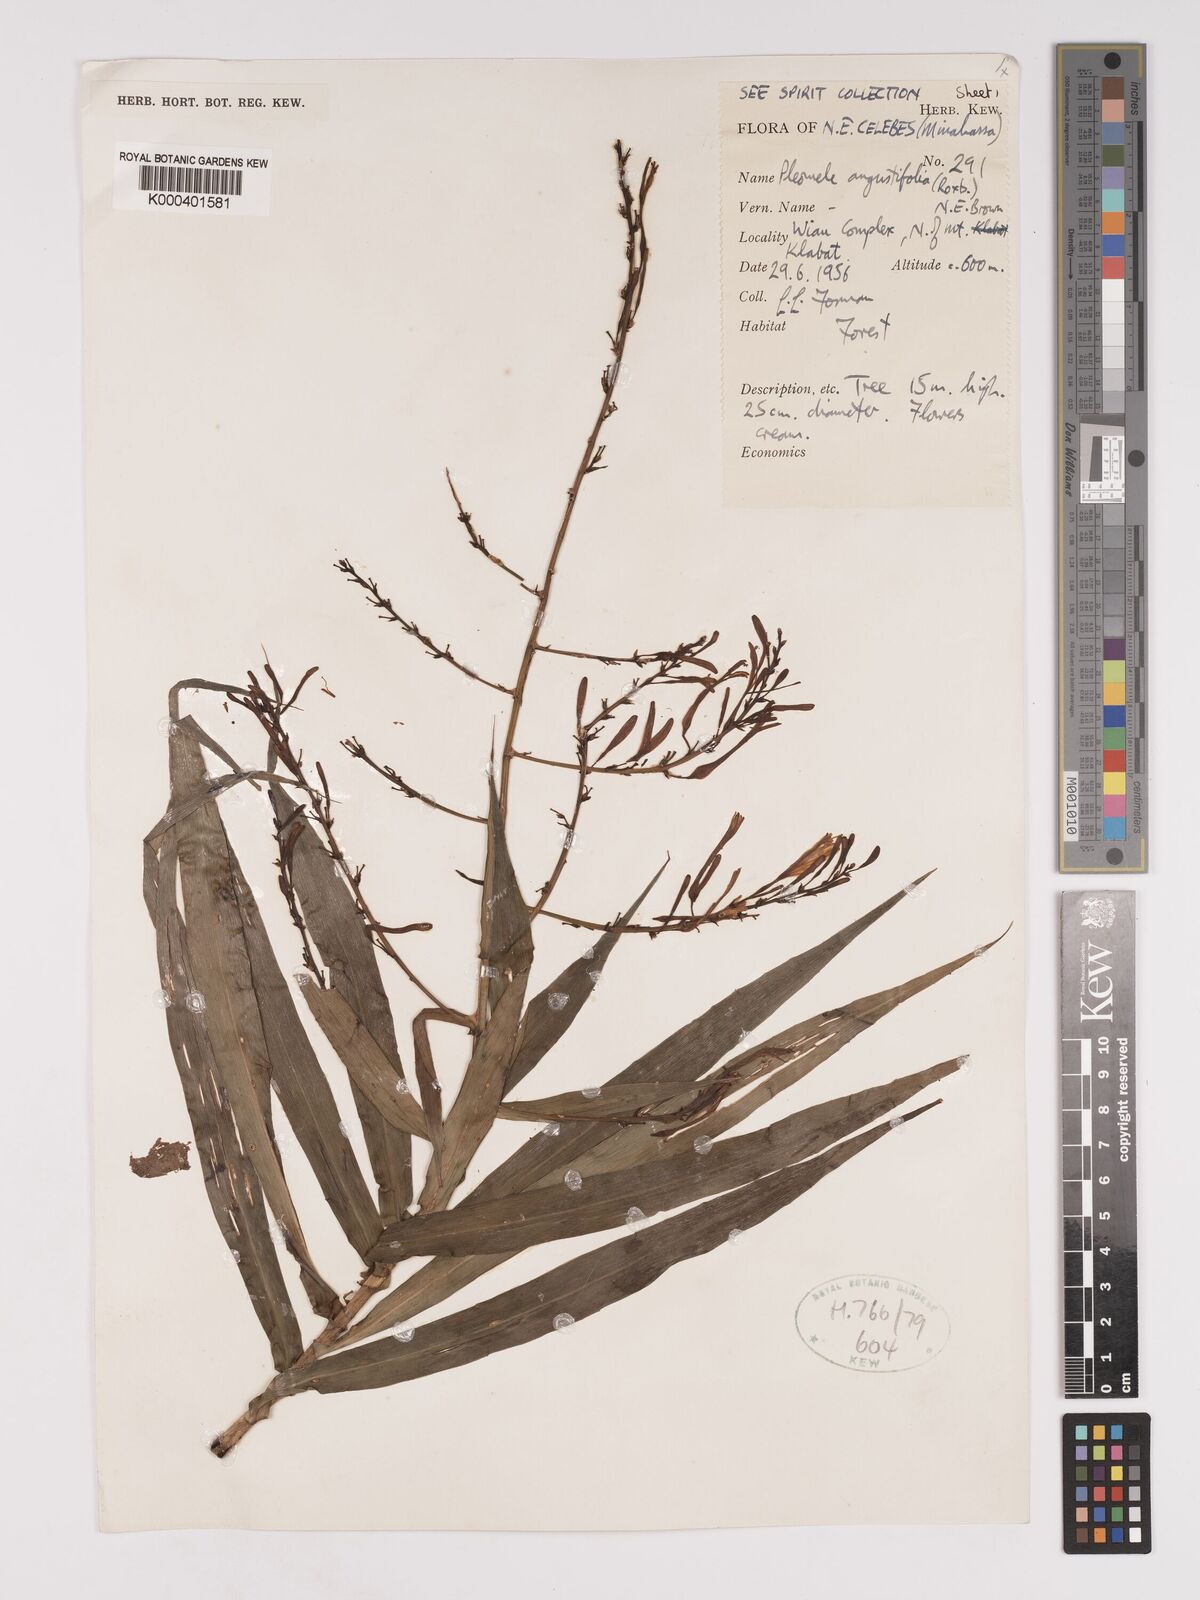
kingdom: Plantae
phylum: Tracheophyta
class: Liliopsida
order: Asparagales
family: Asparagaceae
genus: Dracaena
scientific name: Dracaena angustifolia
